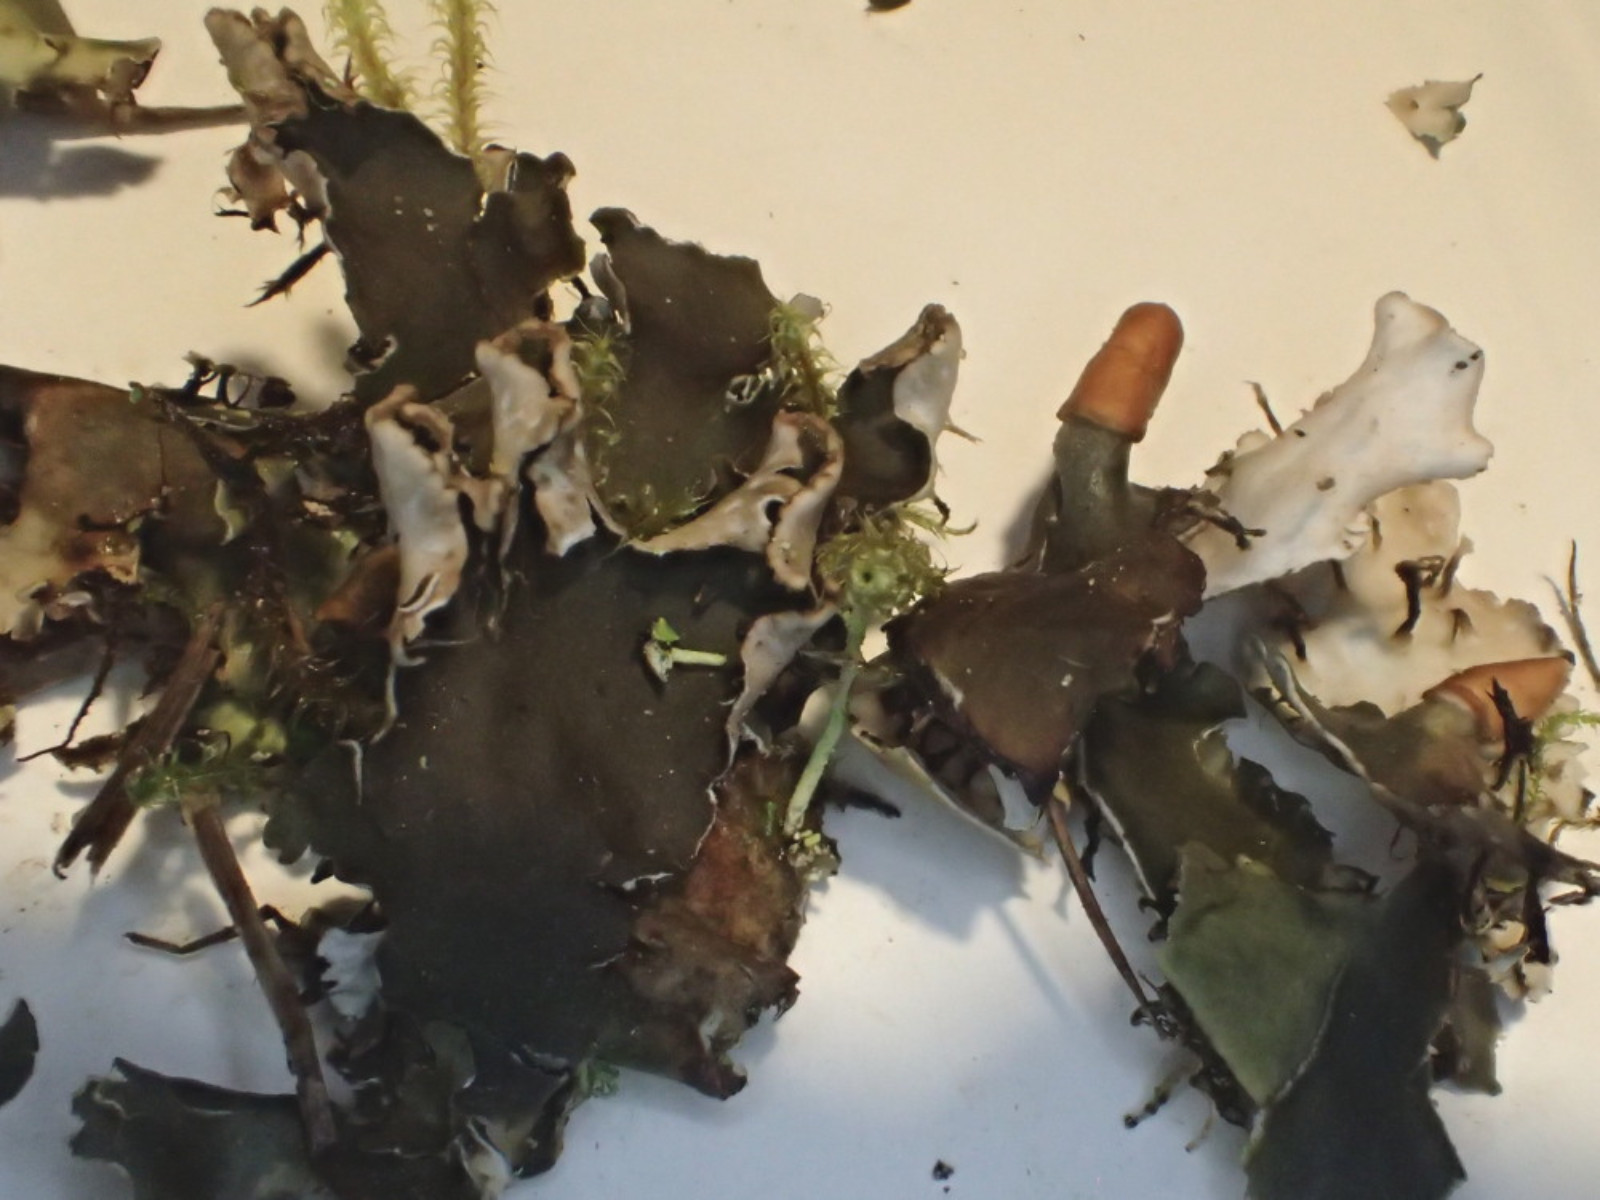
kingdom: Fungi
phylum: Ascomycota
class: Lecanoromycetes
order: Peltigerales
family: Peltigeraceae
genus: Peltigera
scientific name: Peltigera hymenina
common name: hinde-skjoldlav
